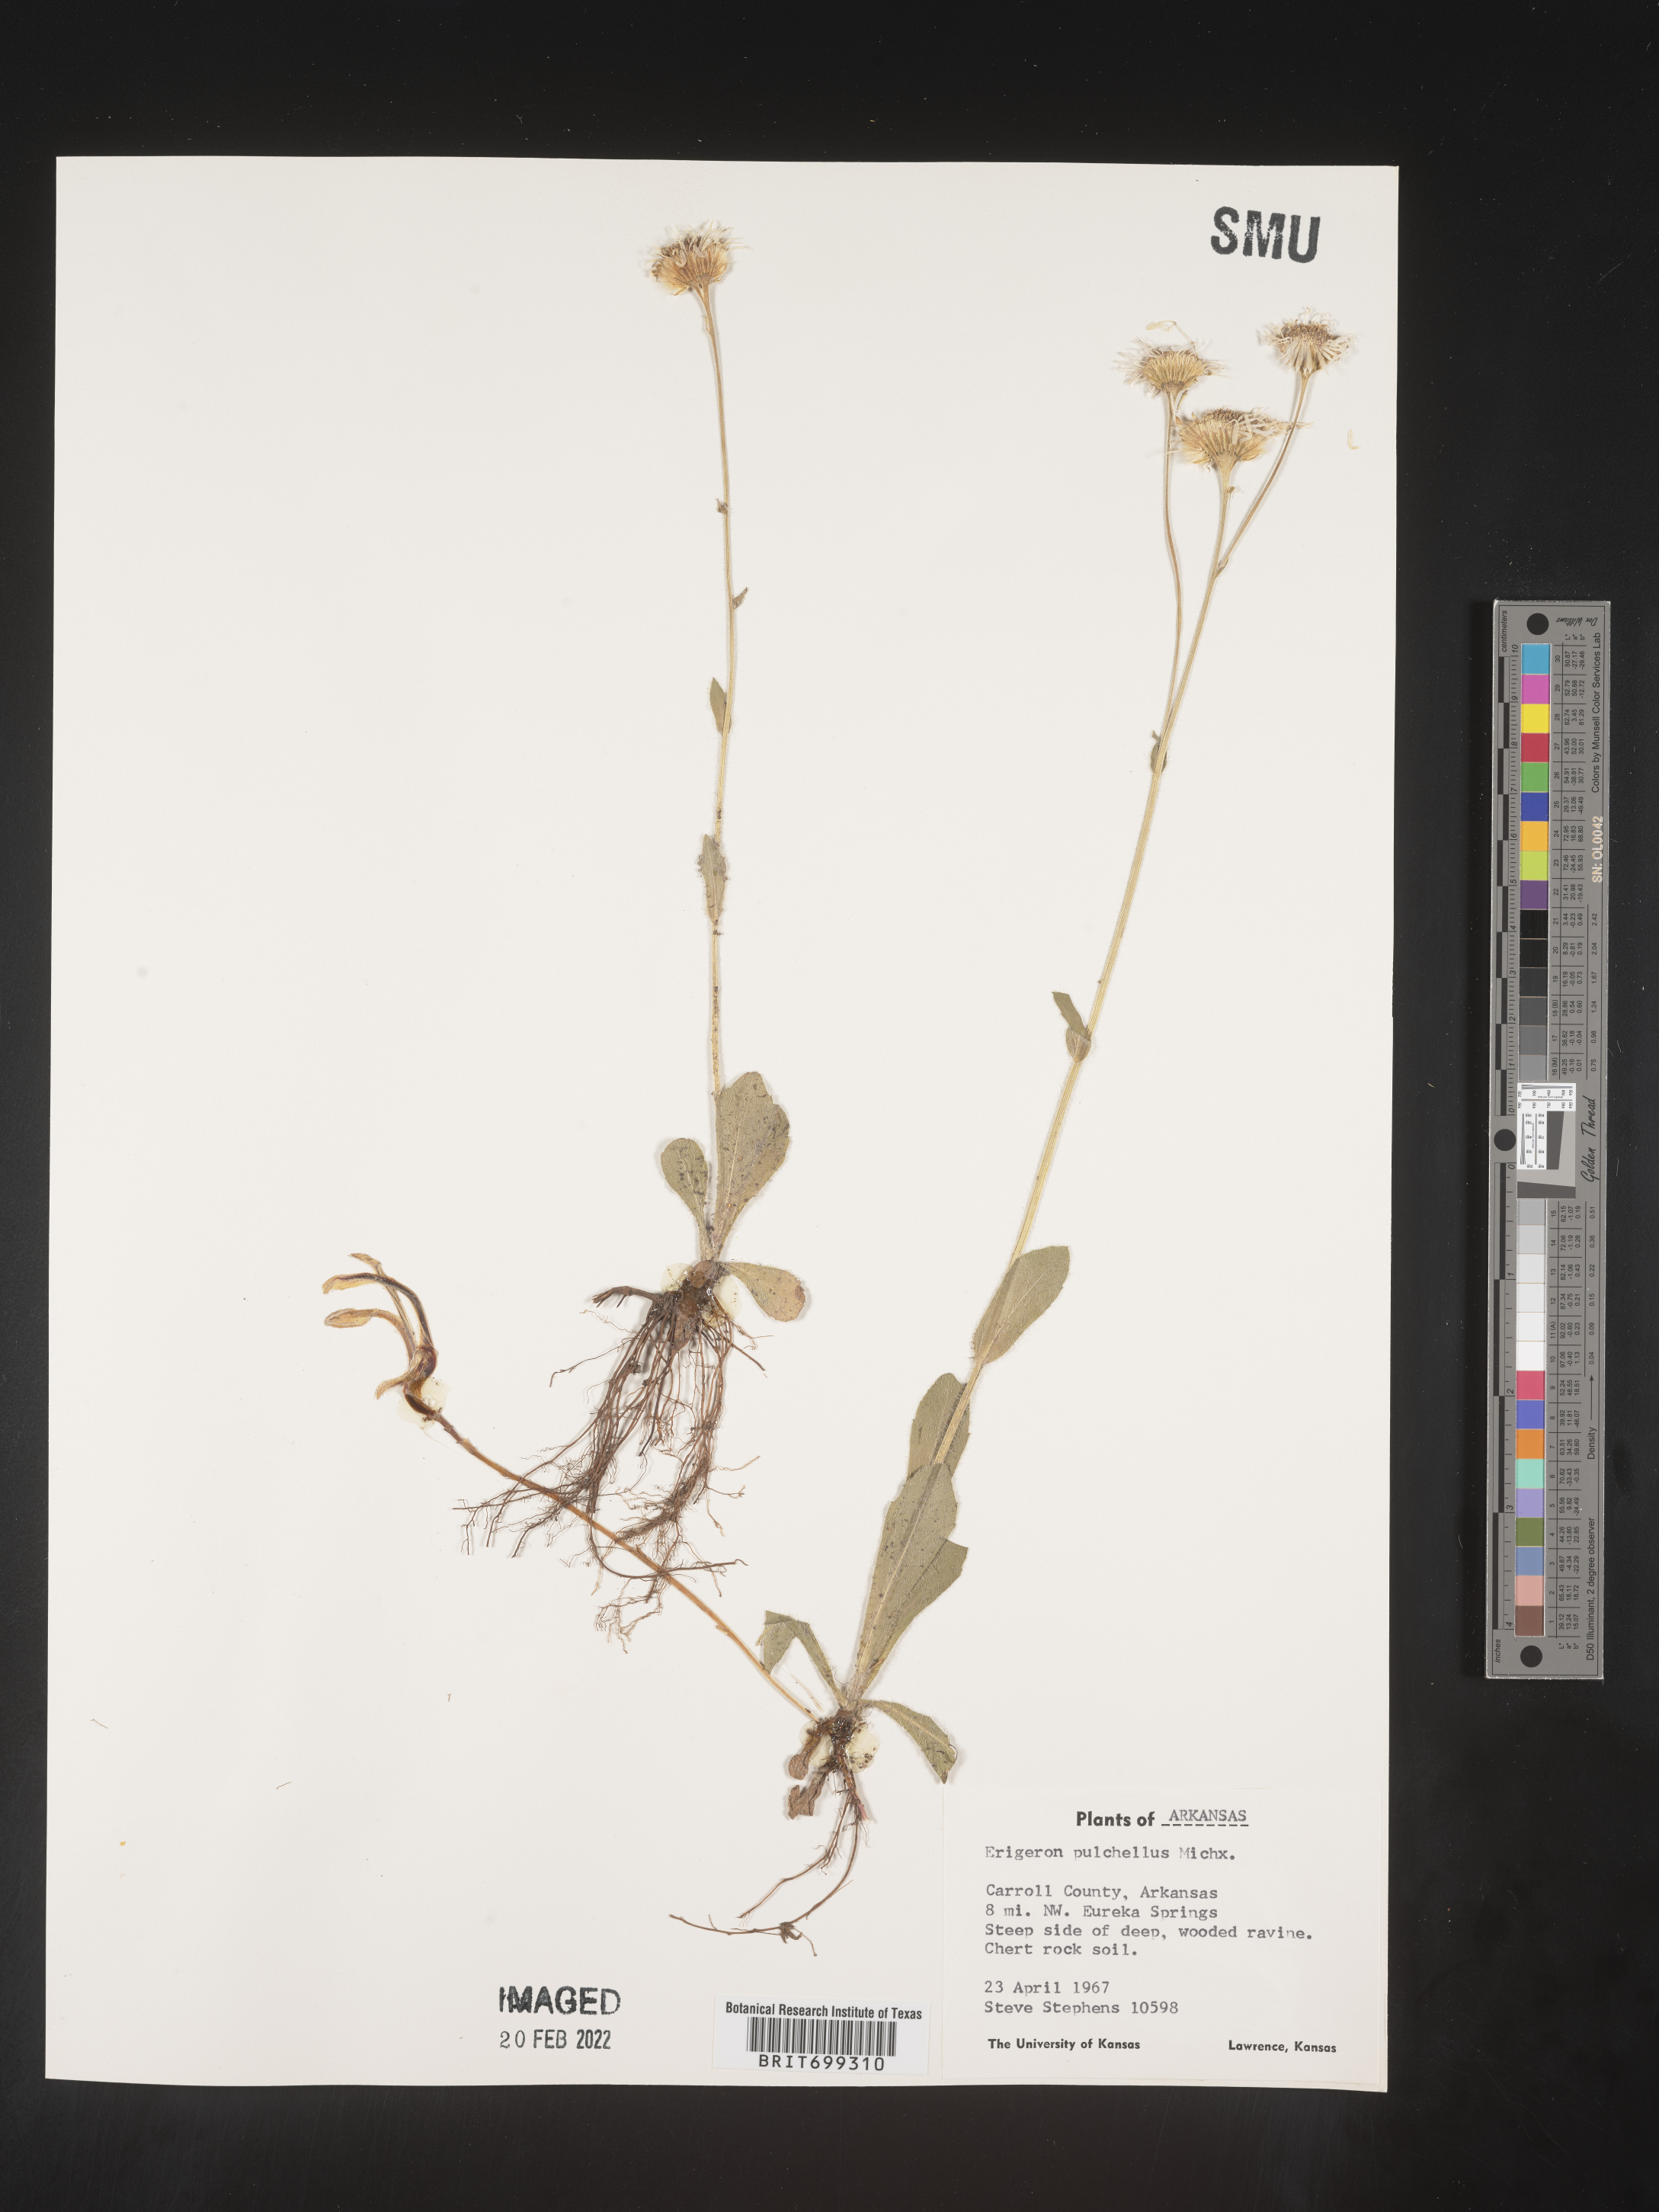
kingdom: Plantae
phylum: Tracheophyta
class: Magnoliopsida
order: Asterales
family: Asteraceae
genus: Erigeron
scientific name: Erigeron pulchellus
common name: Hairy fleabane
